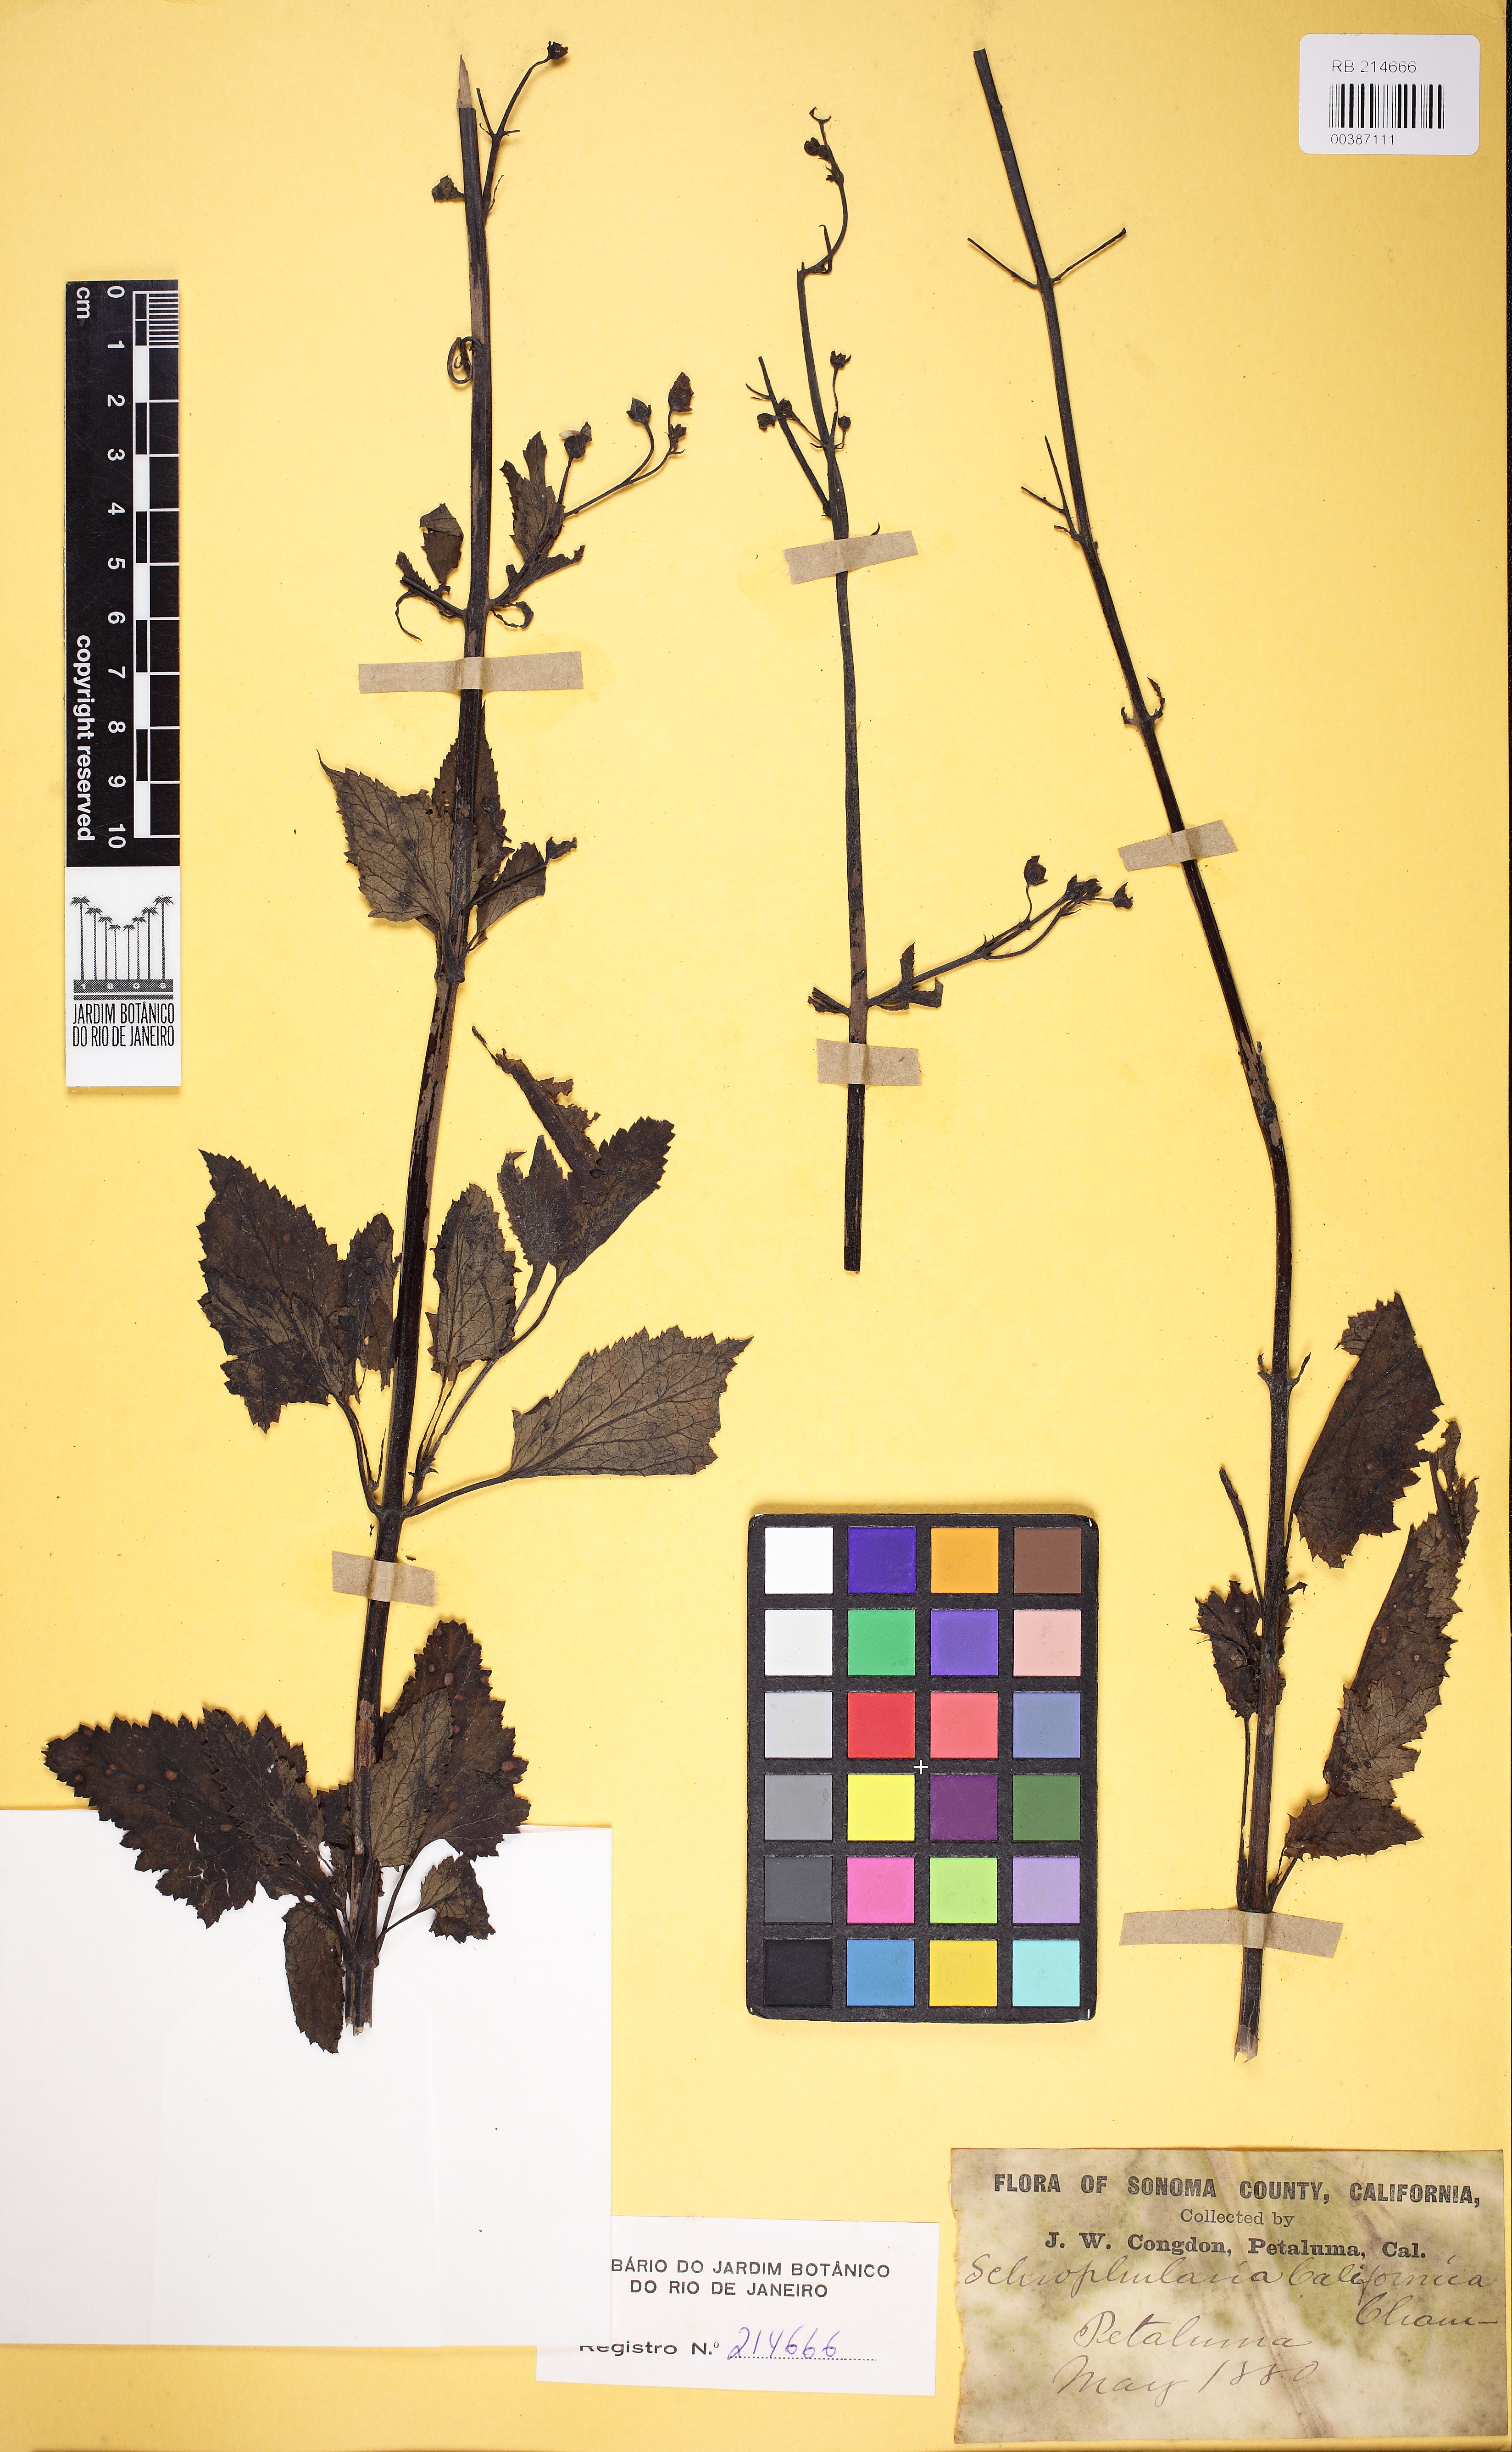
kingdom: Plantae
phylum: Tracheophyta
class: Magnoliopsida
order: Lamiales
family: Scrophulariaceae
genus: Scrophularia
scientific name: Scrophularia californica
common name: California figwort
